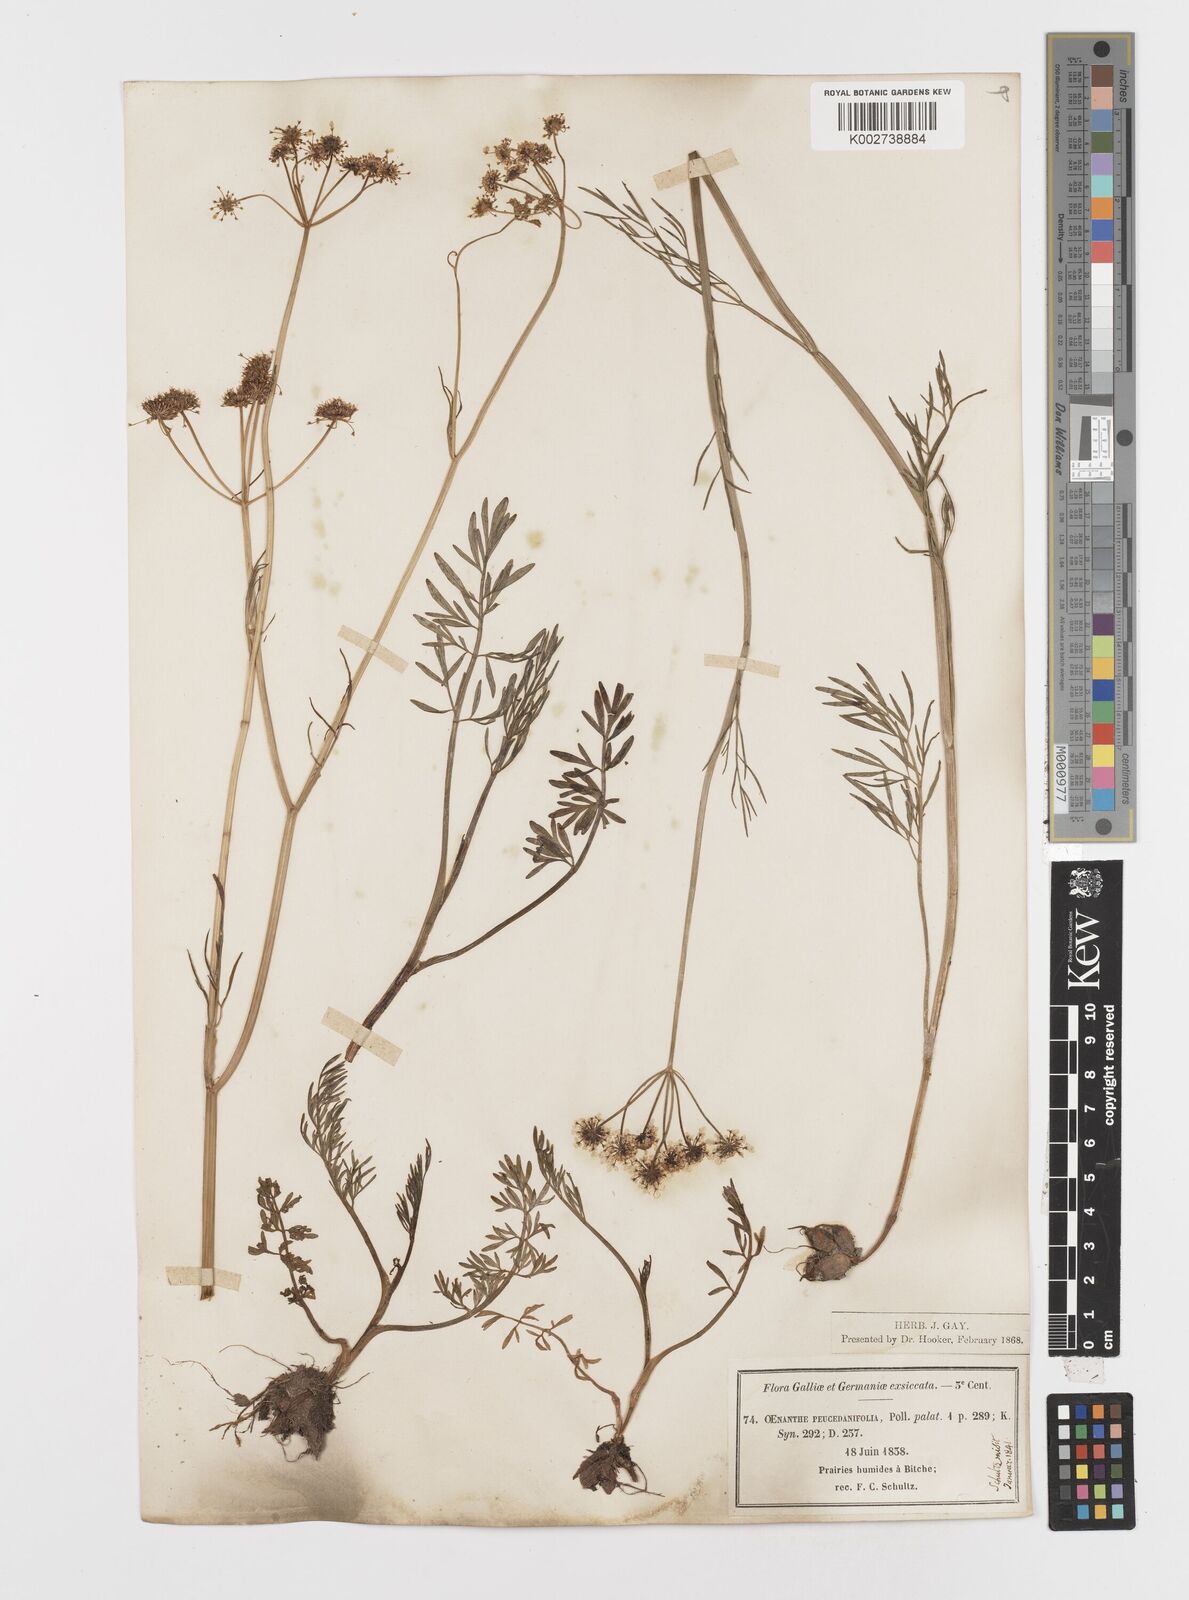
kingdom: Plantae
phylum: Tracheophyta
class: Magnoliopsida
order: Apiales
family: Apiaceae
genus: Oenanthe
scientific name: Oenanthe peucedanifolia
